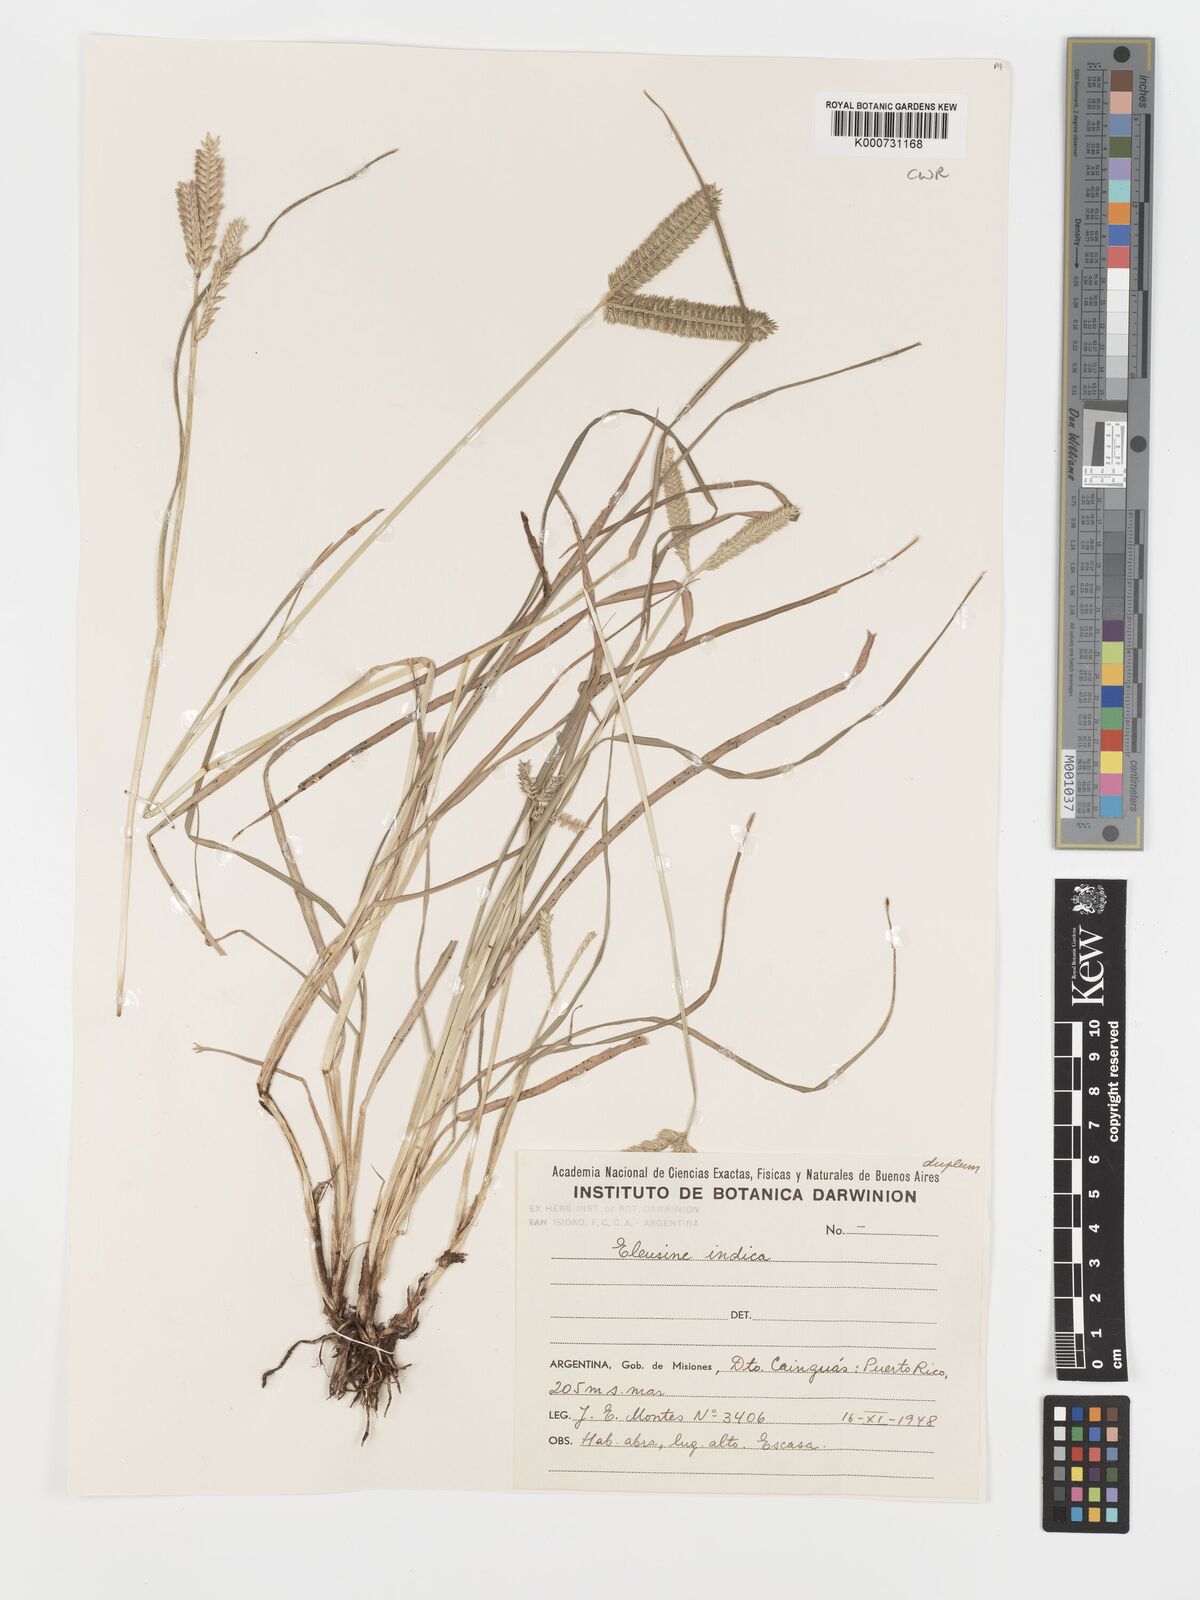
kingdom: Plantae
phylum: Tracheophyta
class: Liliopsida
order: Poales
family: Poaceae
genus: Eleusine
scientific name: Eleusine tristachya
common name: American yard-grass
